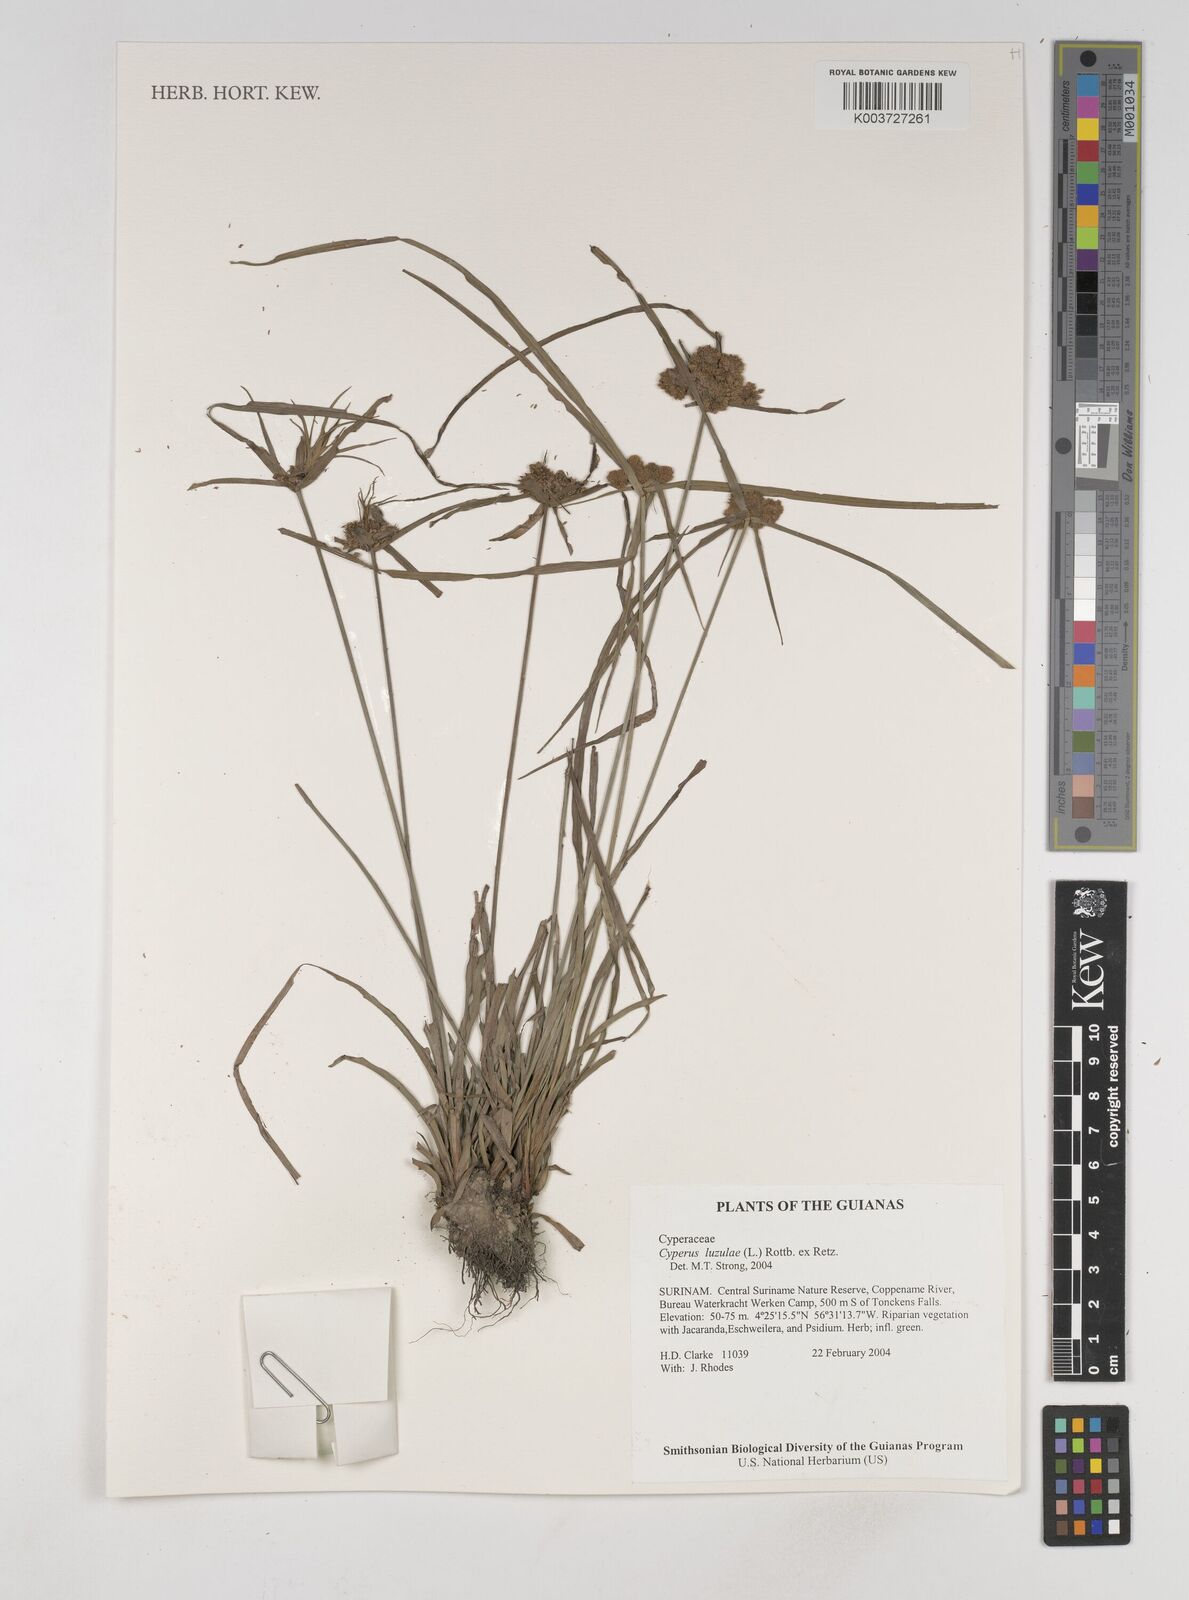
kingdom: Plantae
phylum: Tracheophyta
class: Liliopsida
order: Poales
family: Cyperaceae
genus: Cyperus
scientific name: Cyperus luzulae
